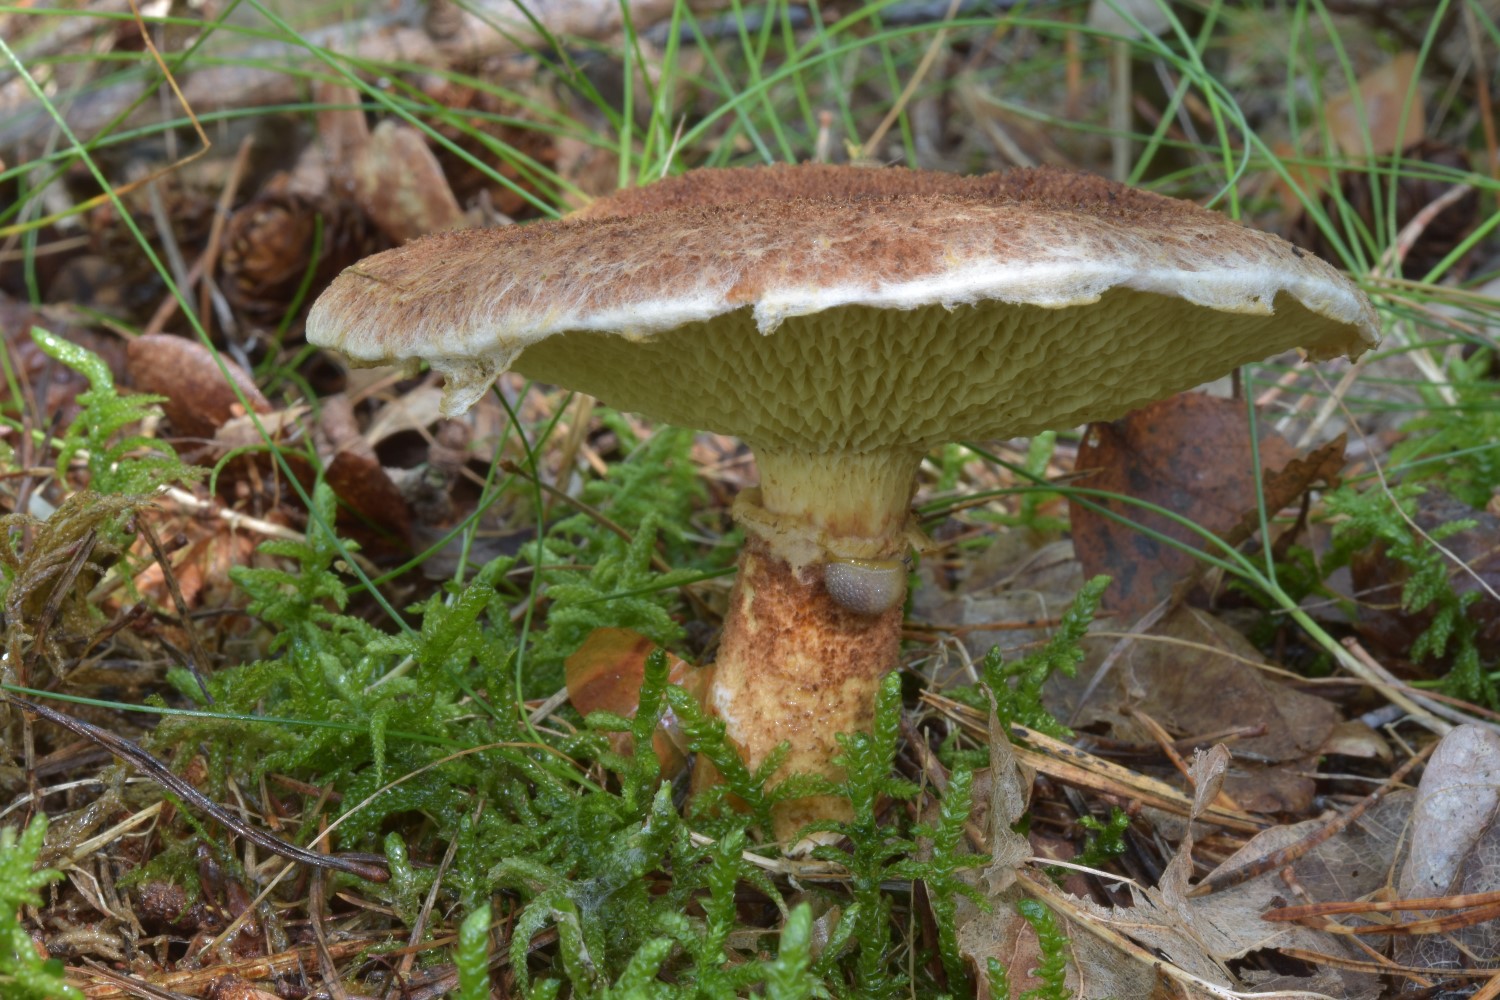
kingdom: Fungi
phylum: Basidiomycota
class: Agaricomycetes
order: Boletales
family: Suillaceae
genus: Suillus
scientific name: Suillus cavipes
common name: hulstokket slimrørhat
